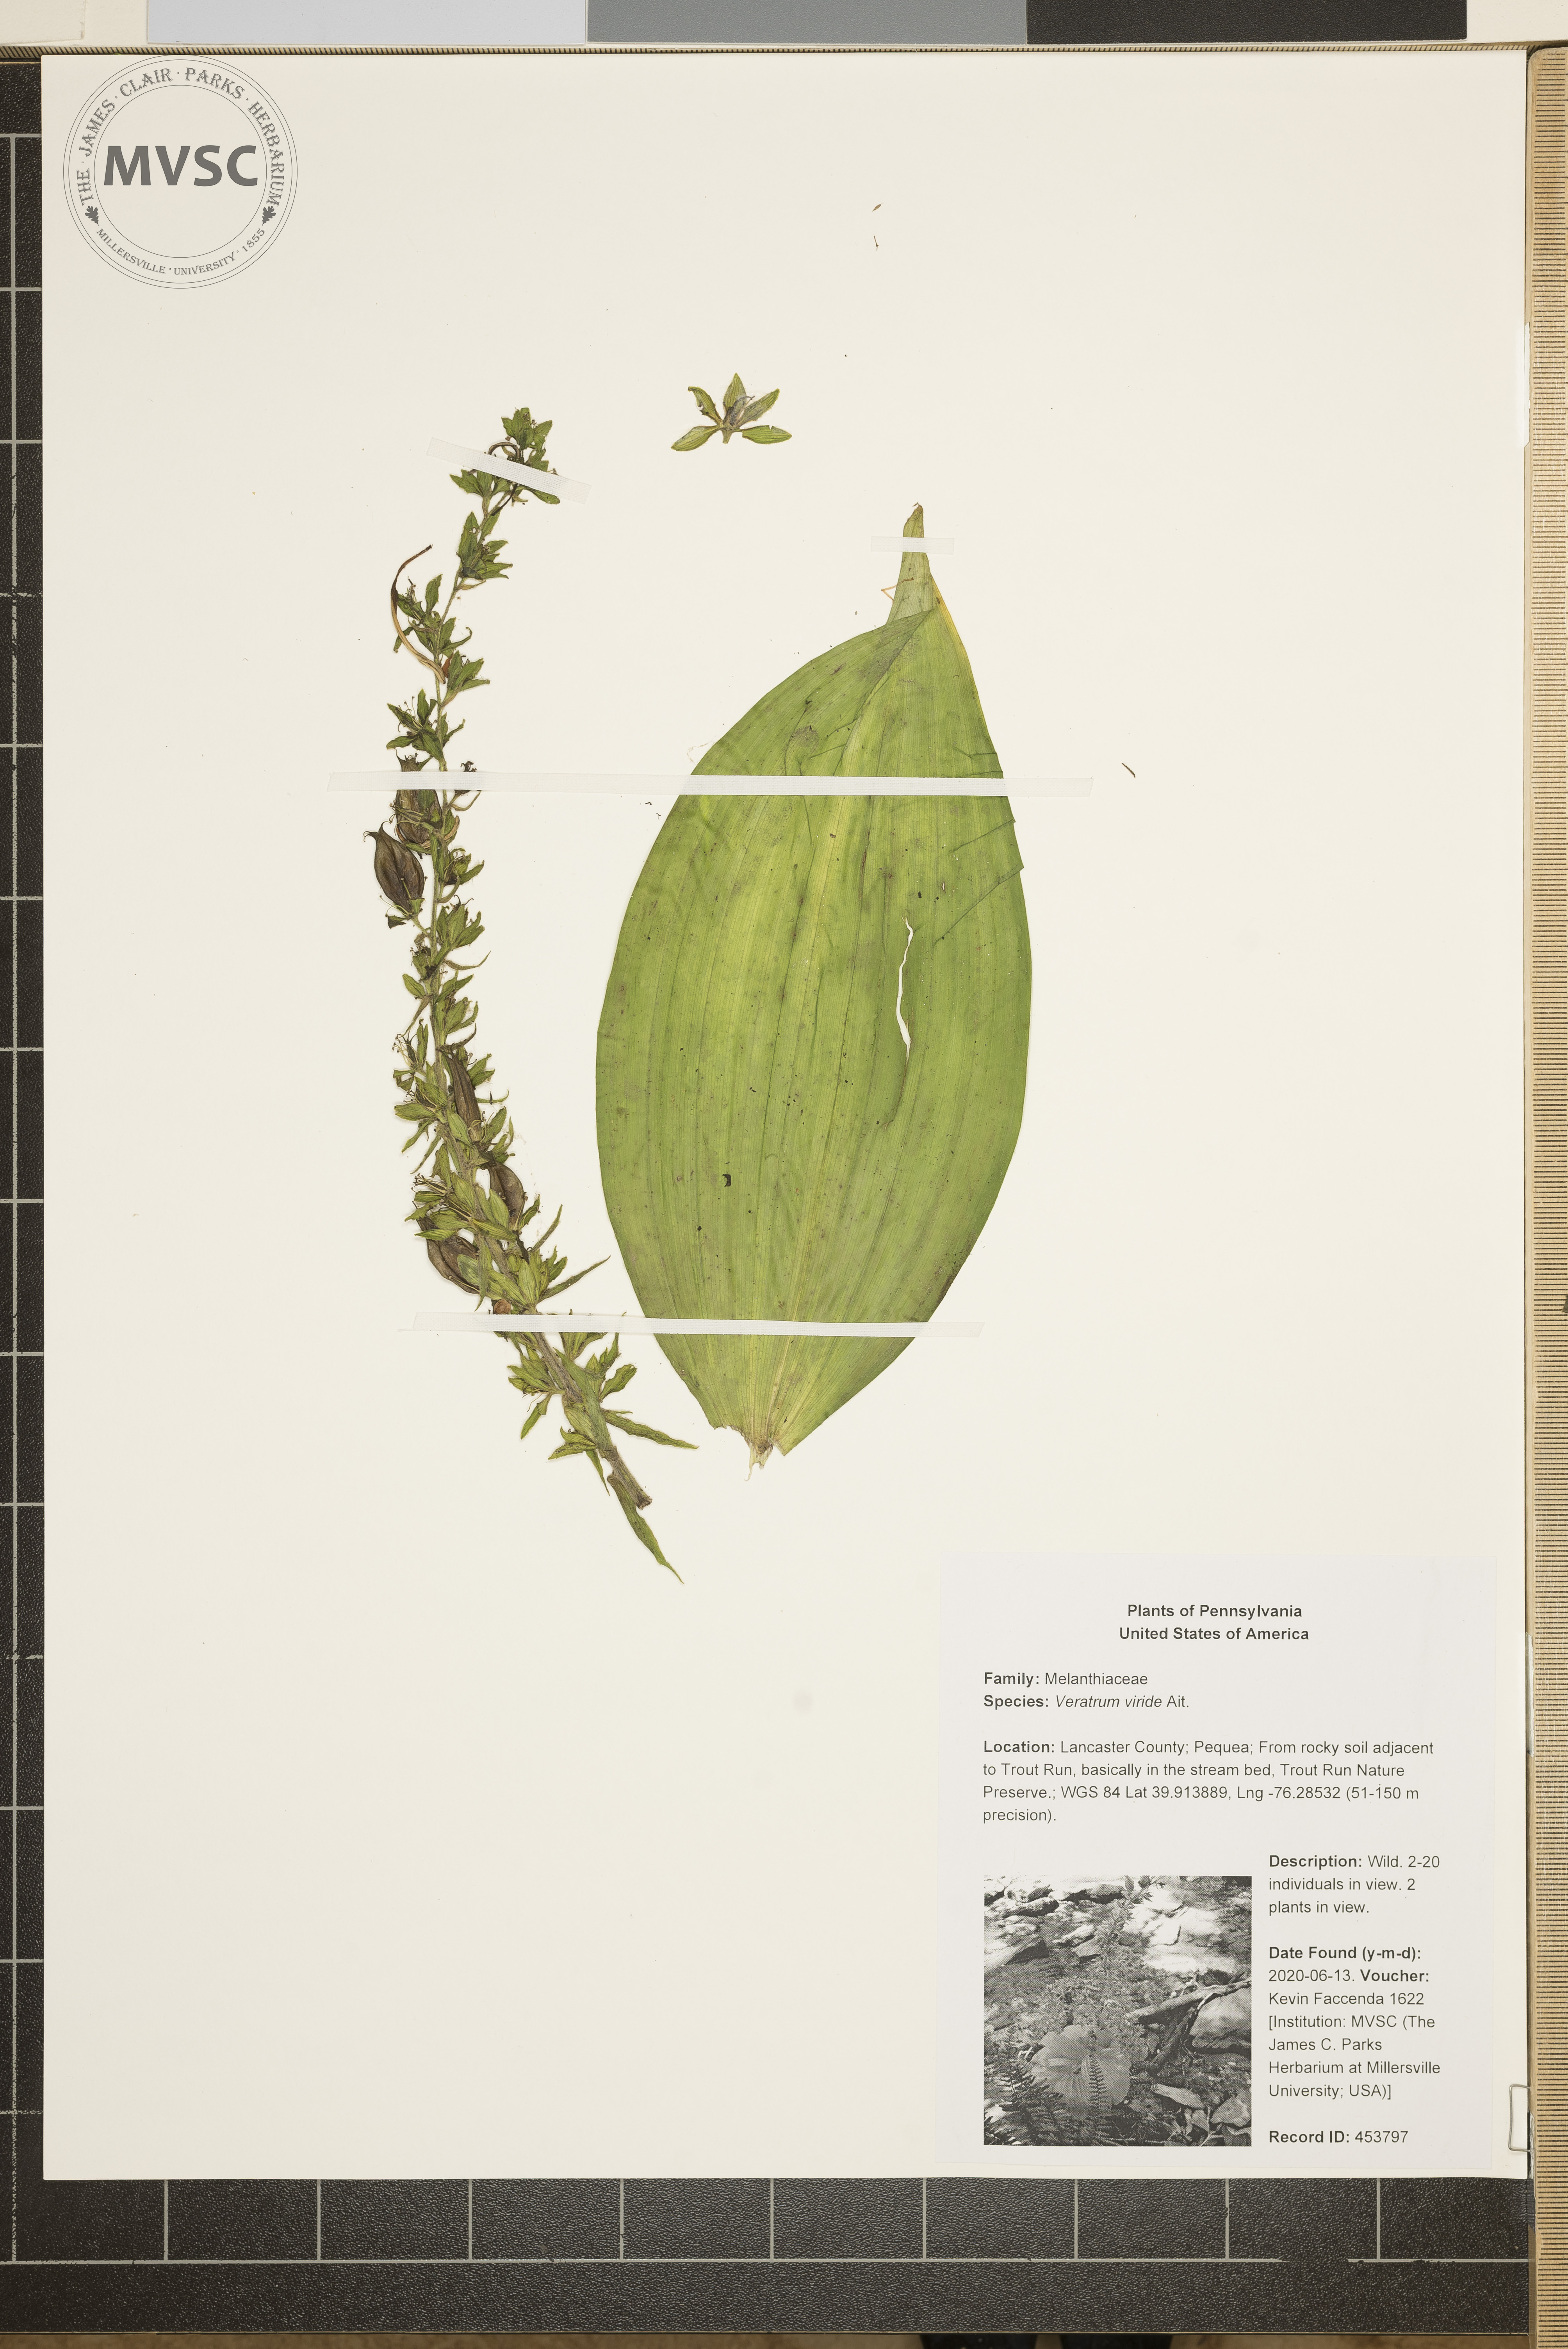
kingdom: Plantae
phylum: Tracheophyta
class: Liliopsida
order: Liliales
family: Melanthiaceae
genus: Veratrum
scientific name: Veratrum viride
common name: American false hellebore
